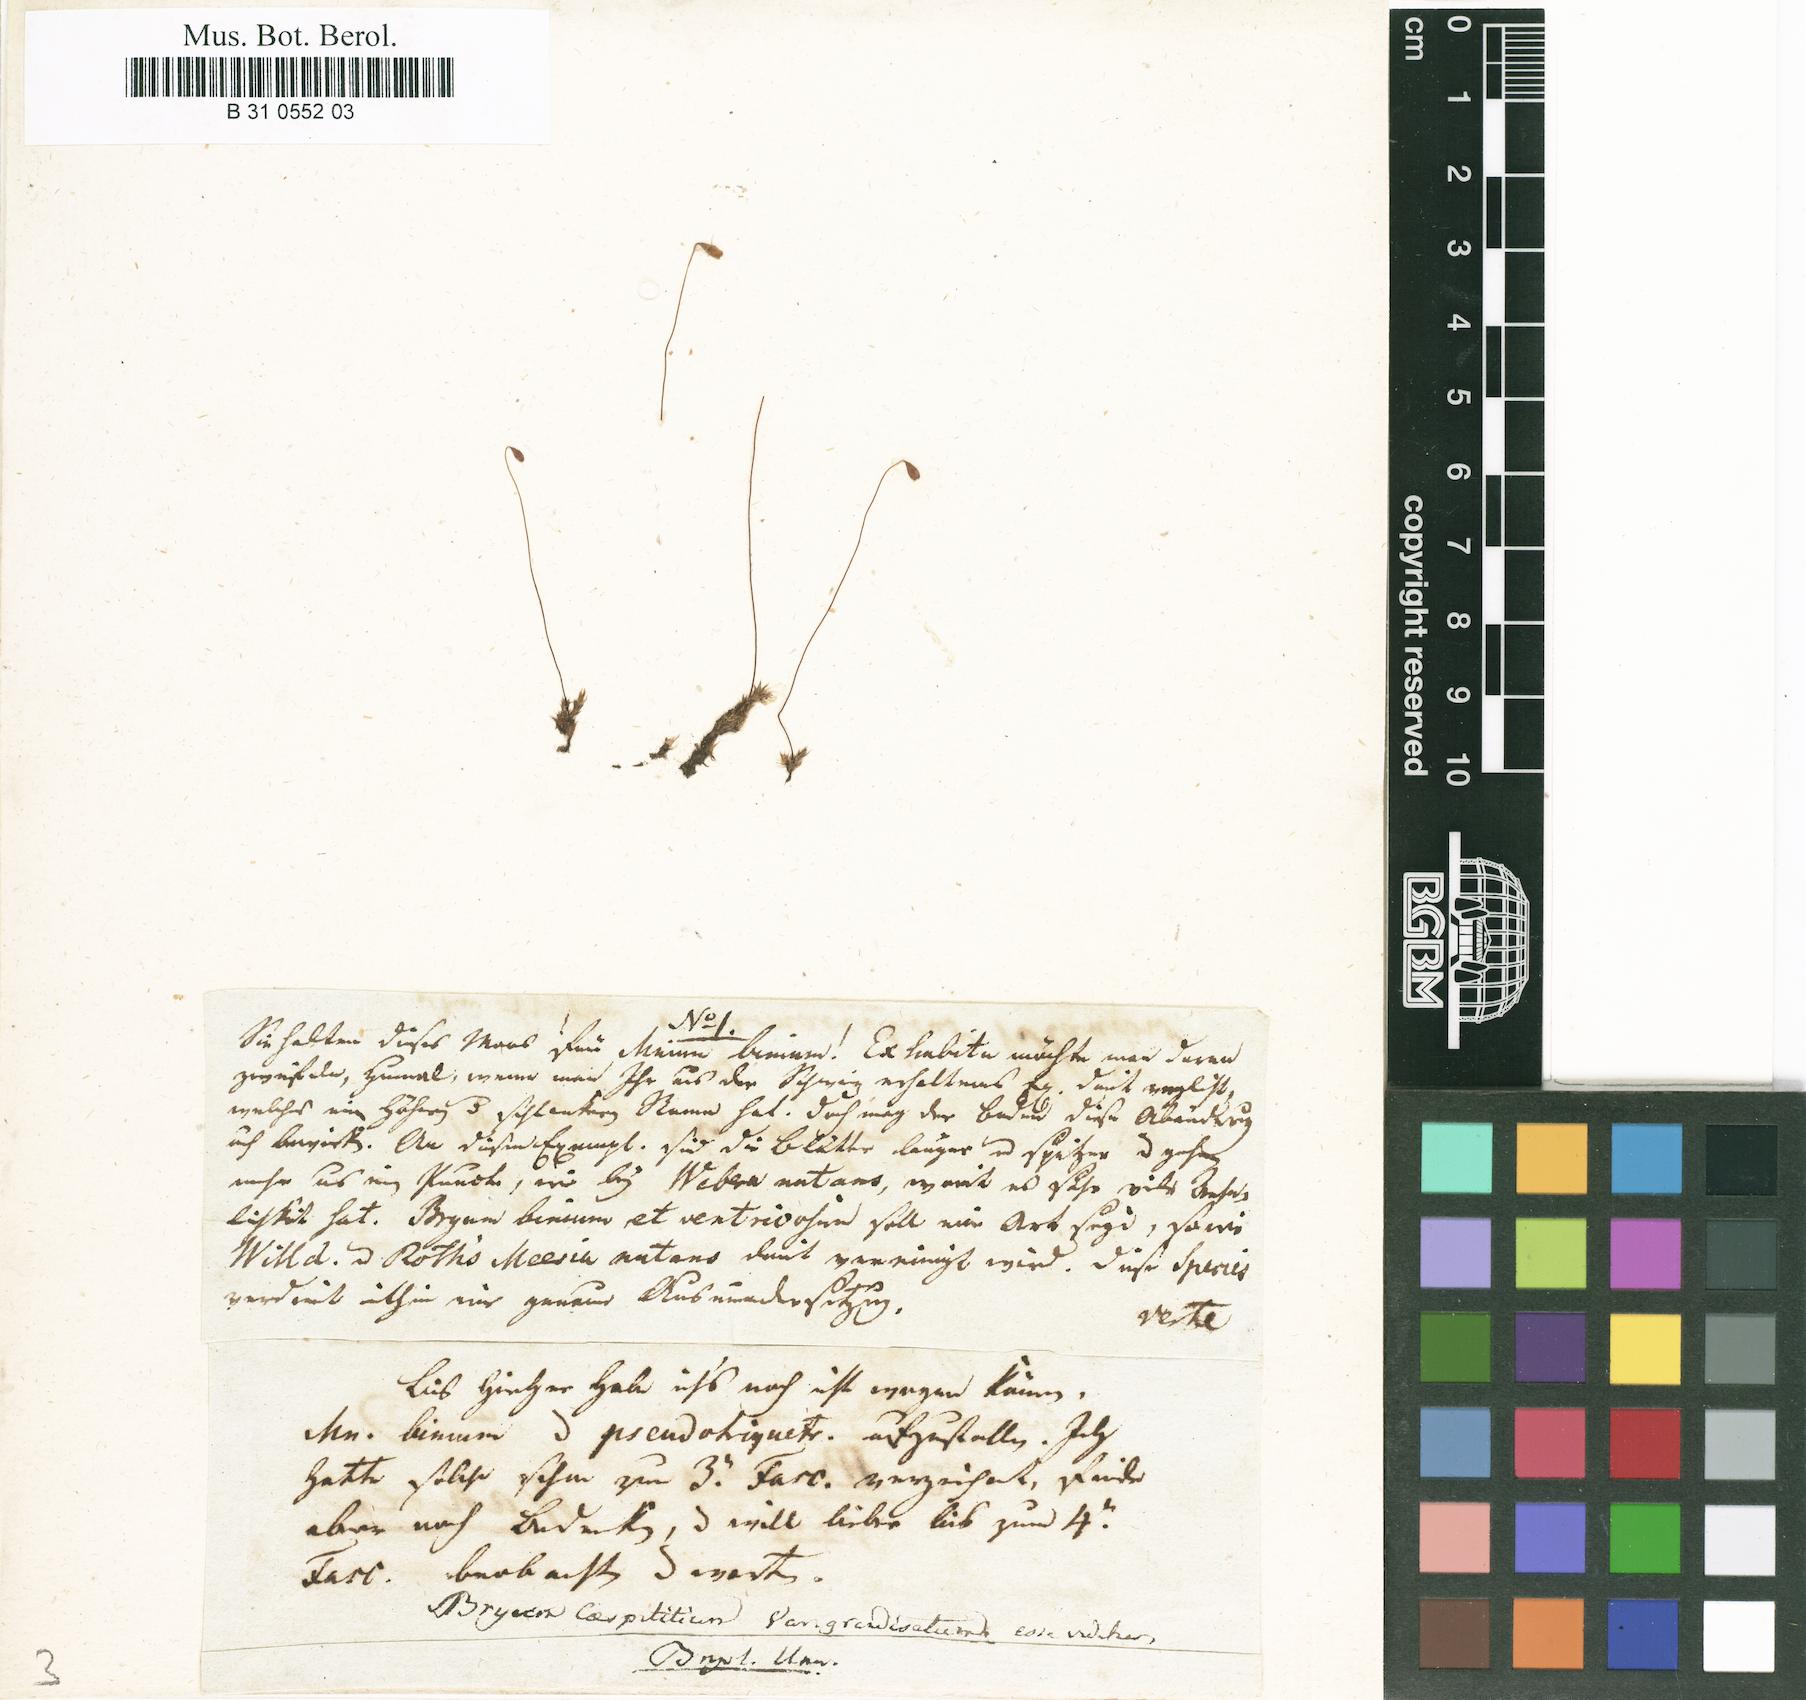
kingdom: Plantae
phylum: Bryophyta
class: Bryopsida
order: Bryales
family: Bryaceae
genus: Ptychostomum
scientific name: Ptychostomum longisetum
